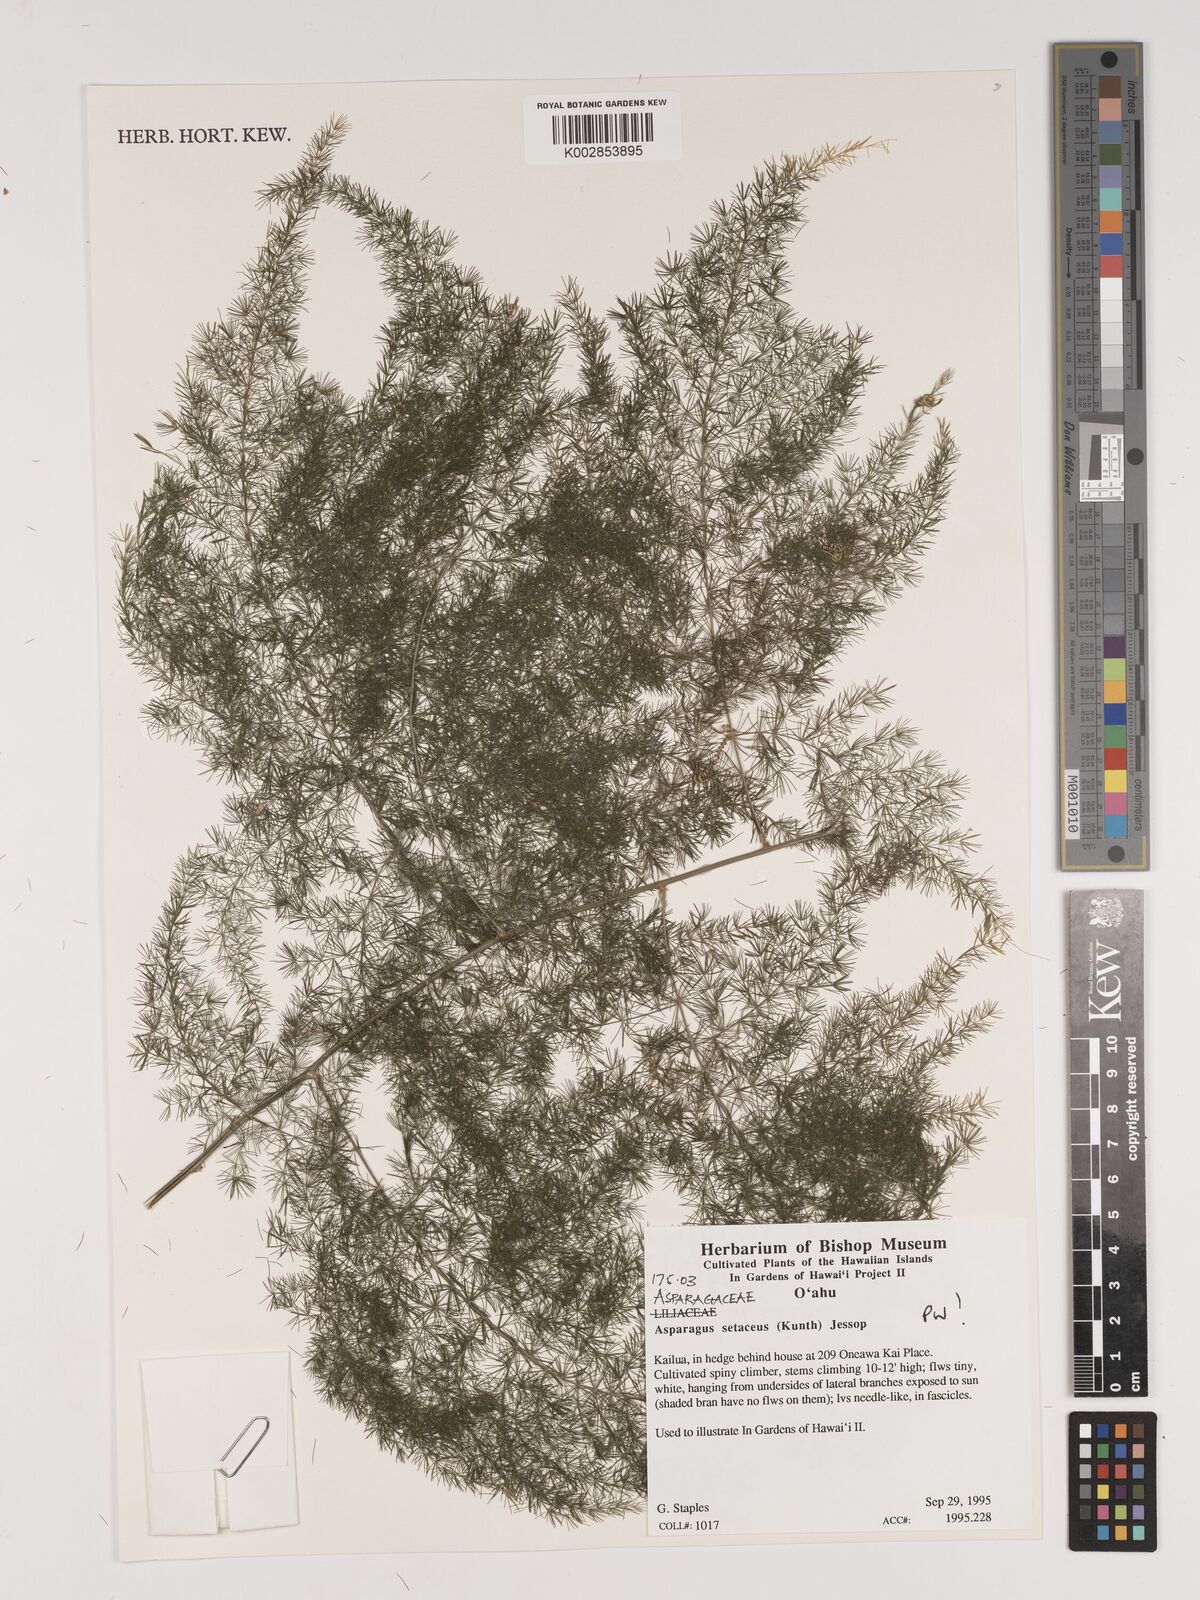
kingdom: Plantae
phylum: Tracheophyta
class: Liliopsida
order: Asparagales
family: Asparagaceae
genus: Asparagus
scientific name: Asparagus setaceus
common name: Common asparagus fern
